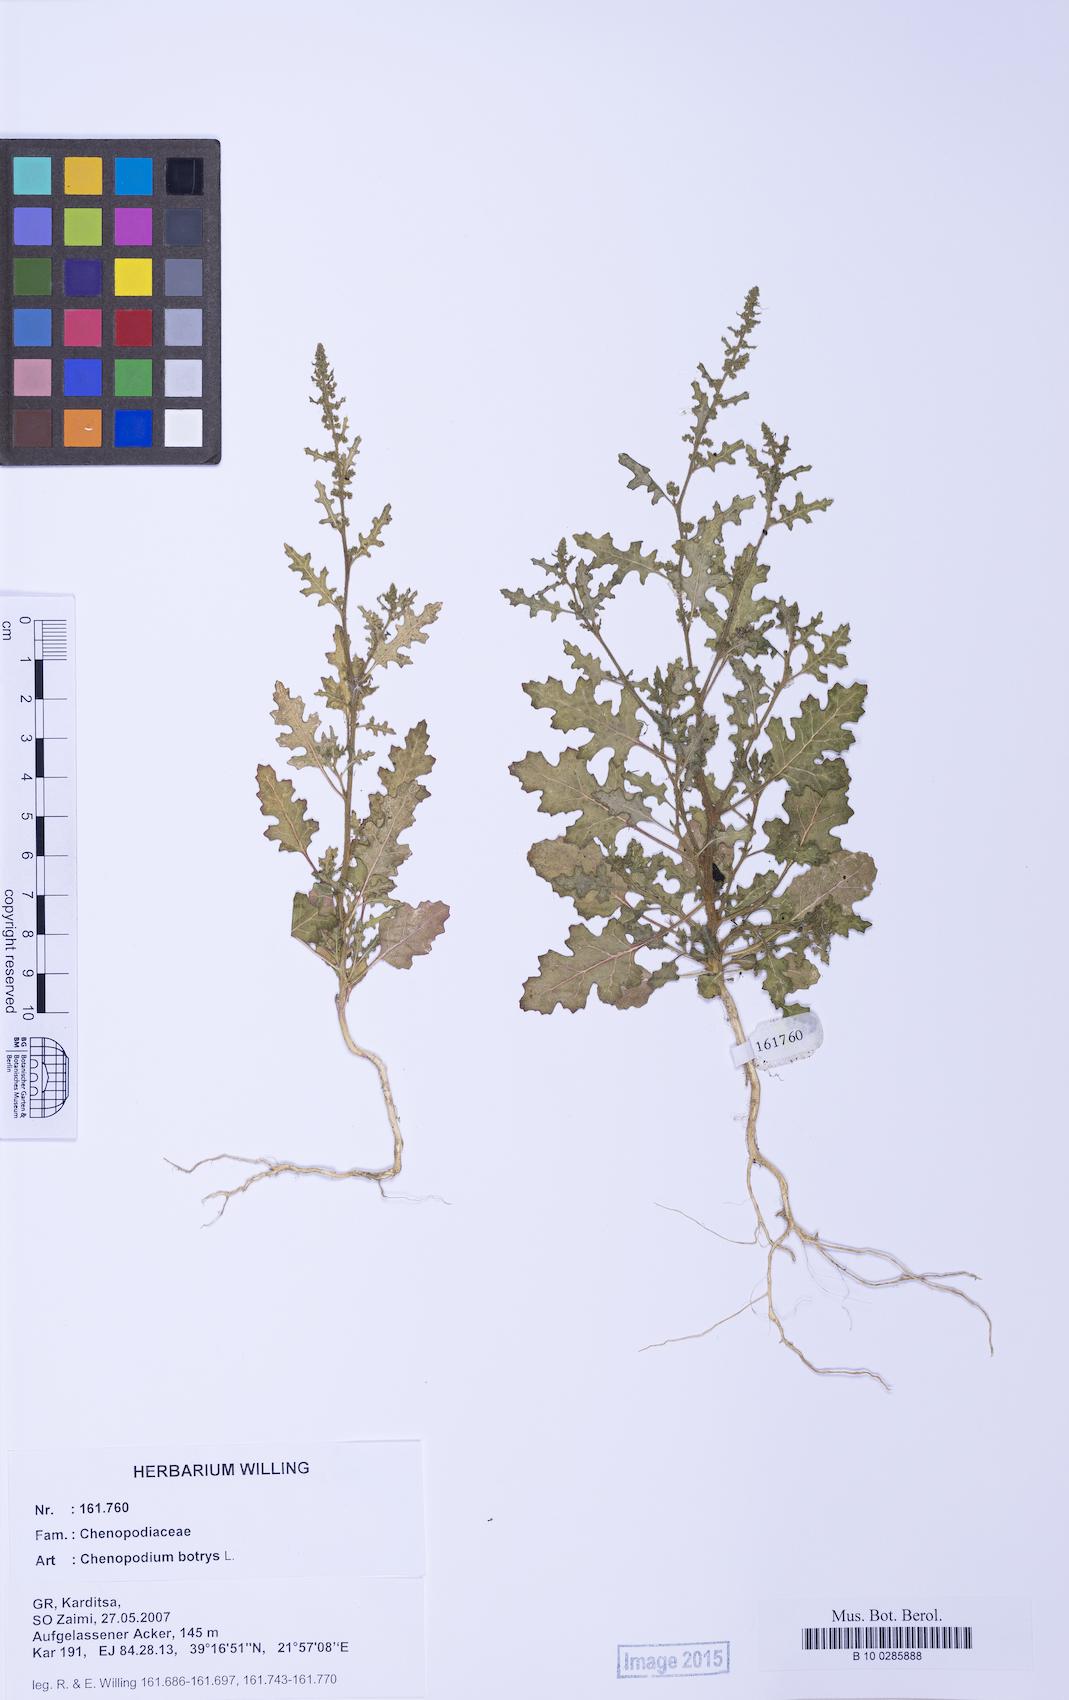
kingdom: Plantae
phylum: Tracheophyta
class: Magnoliopsida
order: Caryophyllales
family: Amaranthaceae
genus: Dysphania
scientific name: Dysphania botrys
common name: Feather-geranium
